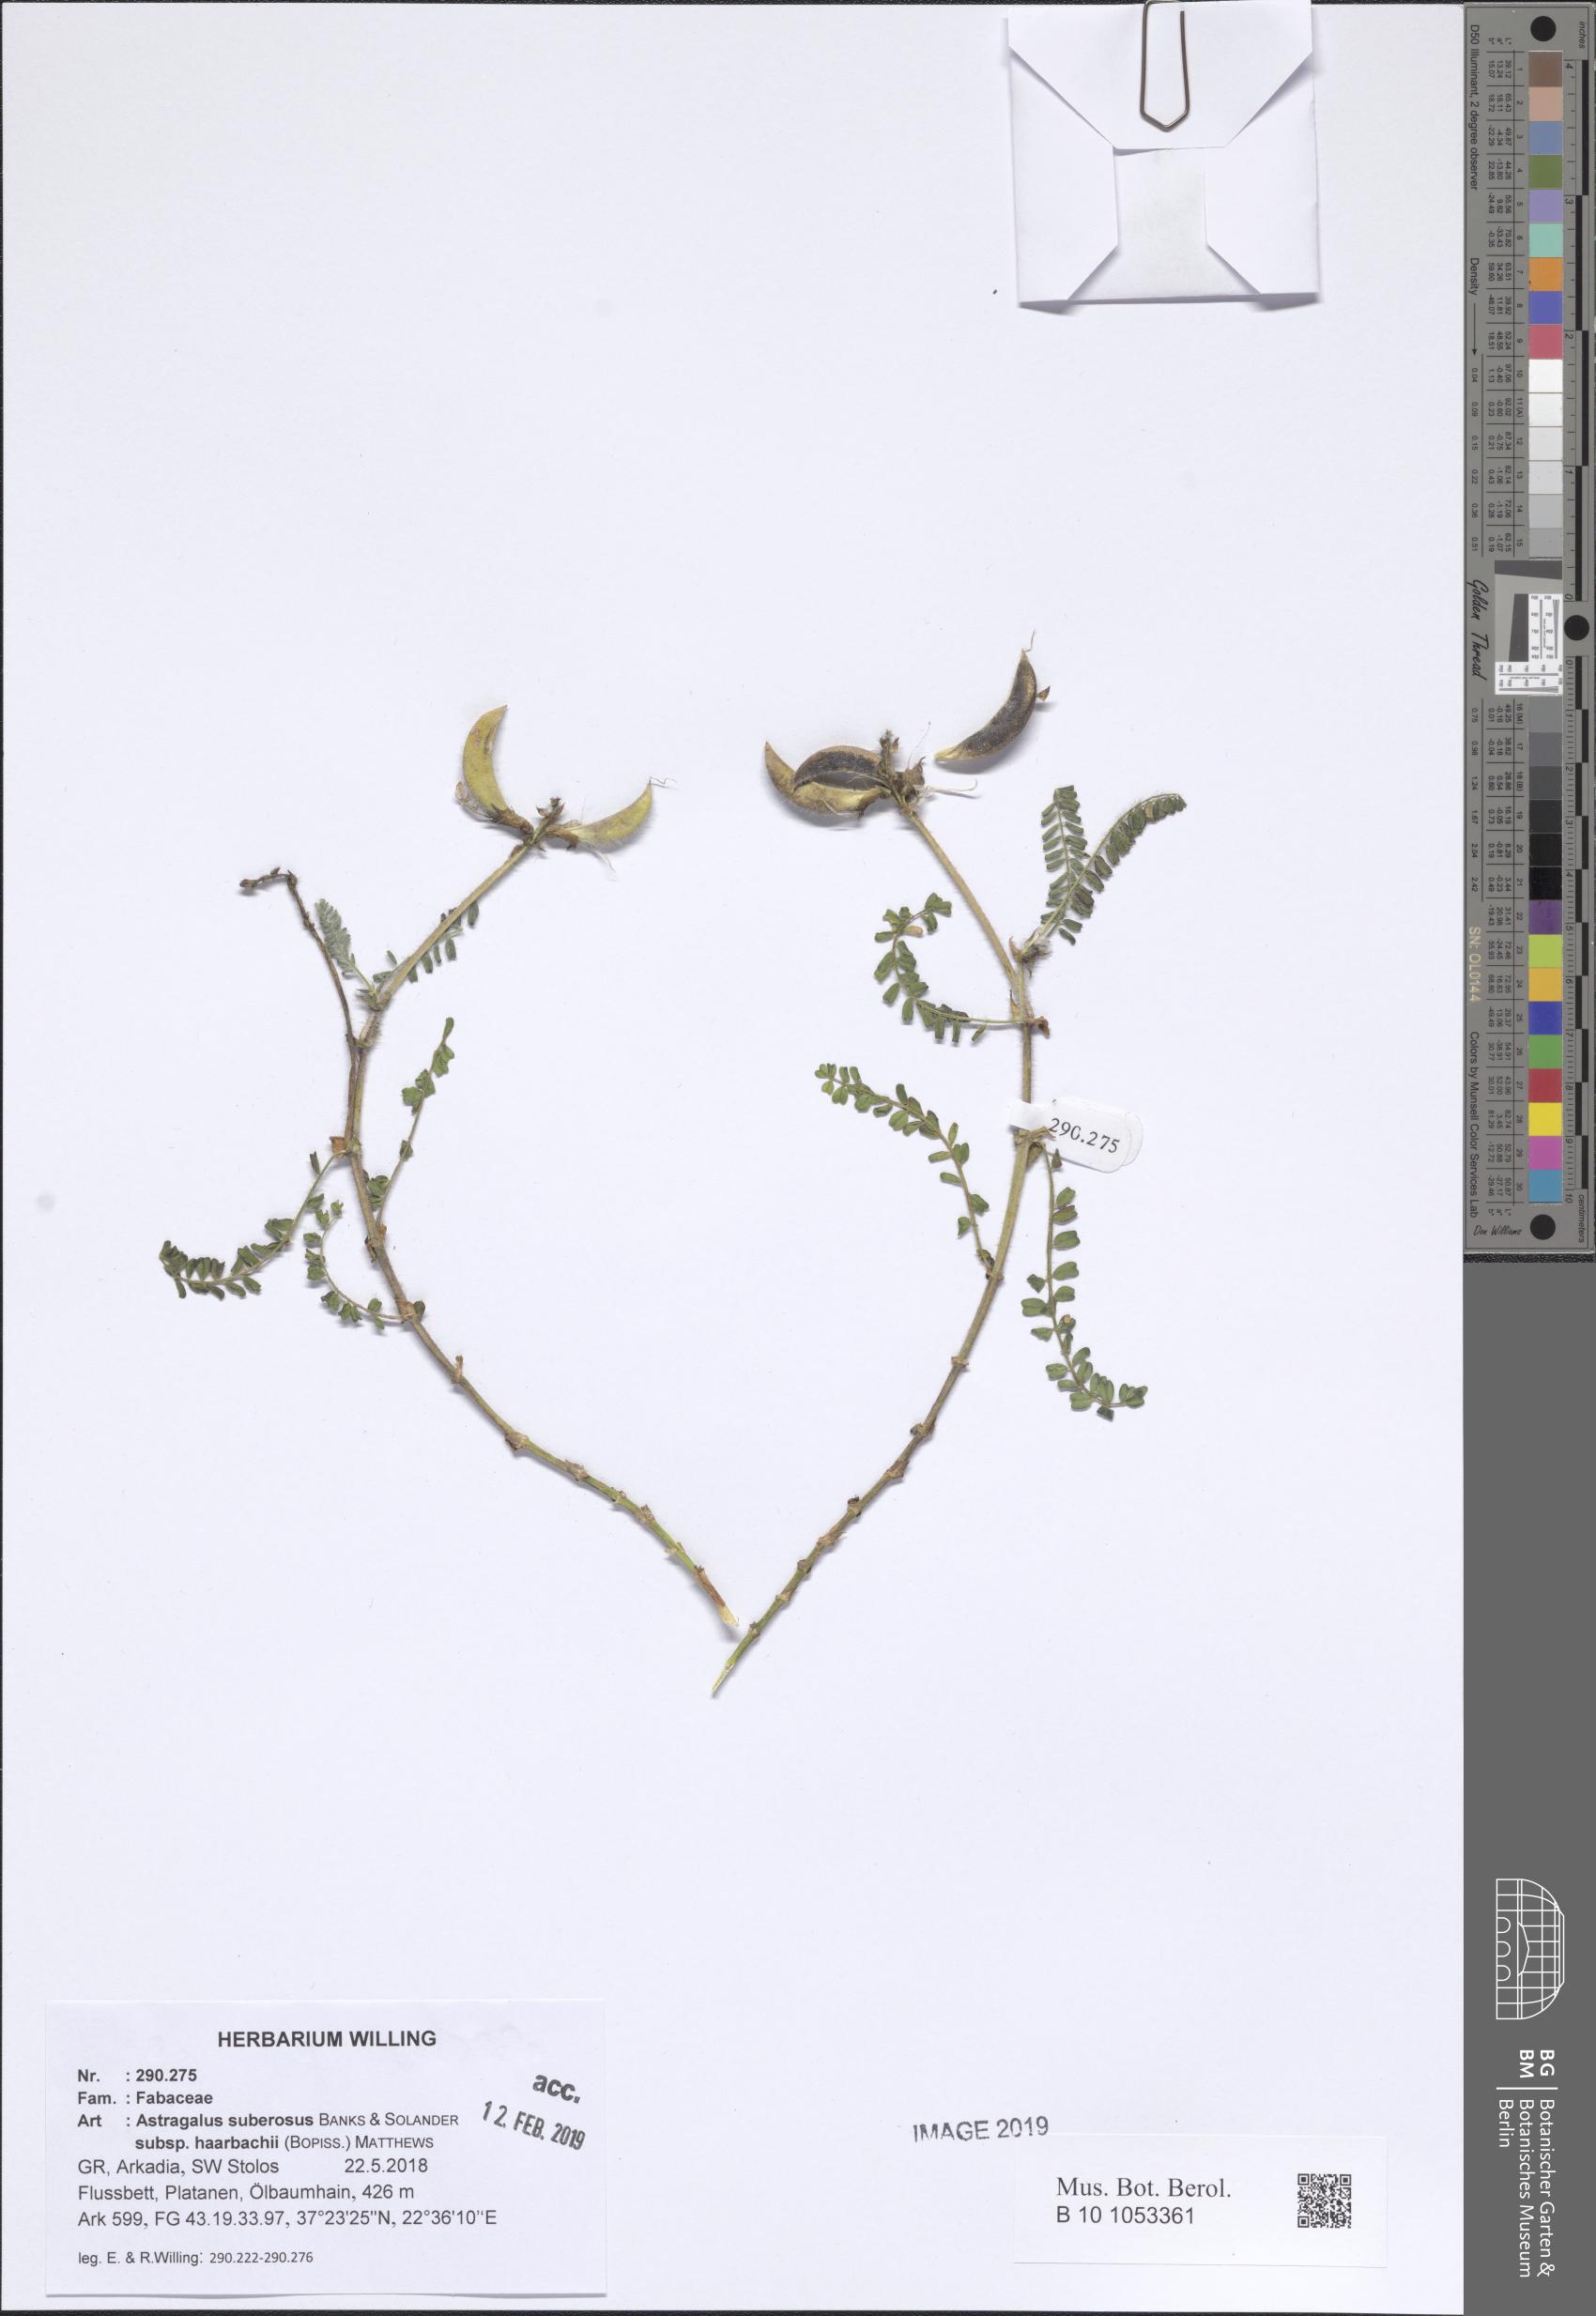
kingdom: Plantae
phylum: Tracheophyta
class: Magnoliopsida
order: Fabales
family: Fabaceae
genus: Astragalus
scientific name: Astragalus suberosus
